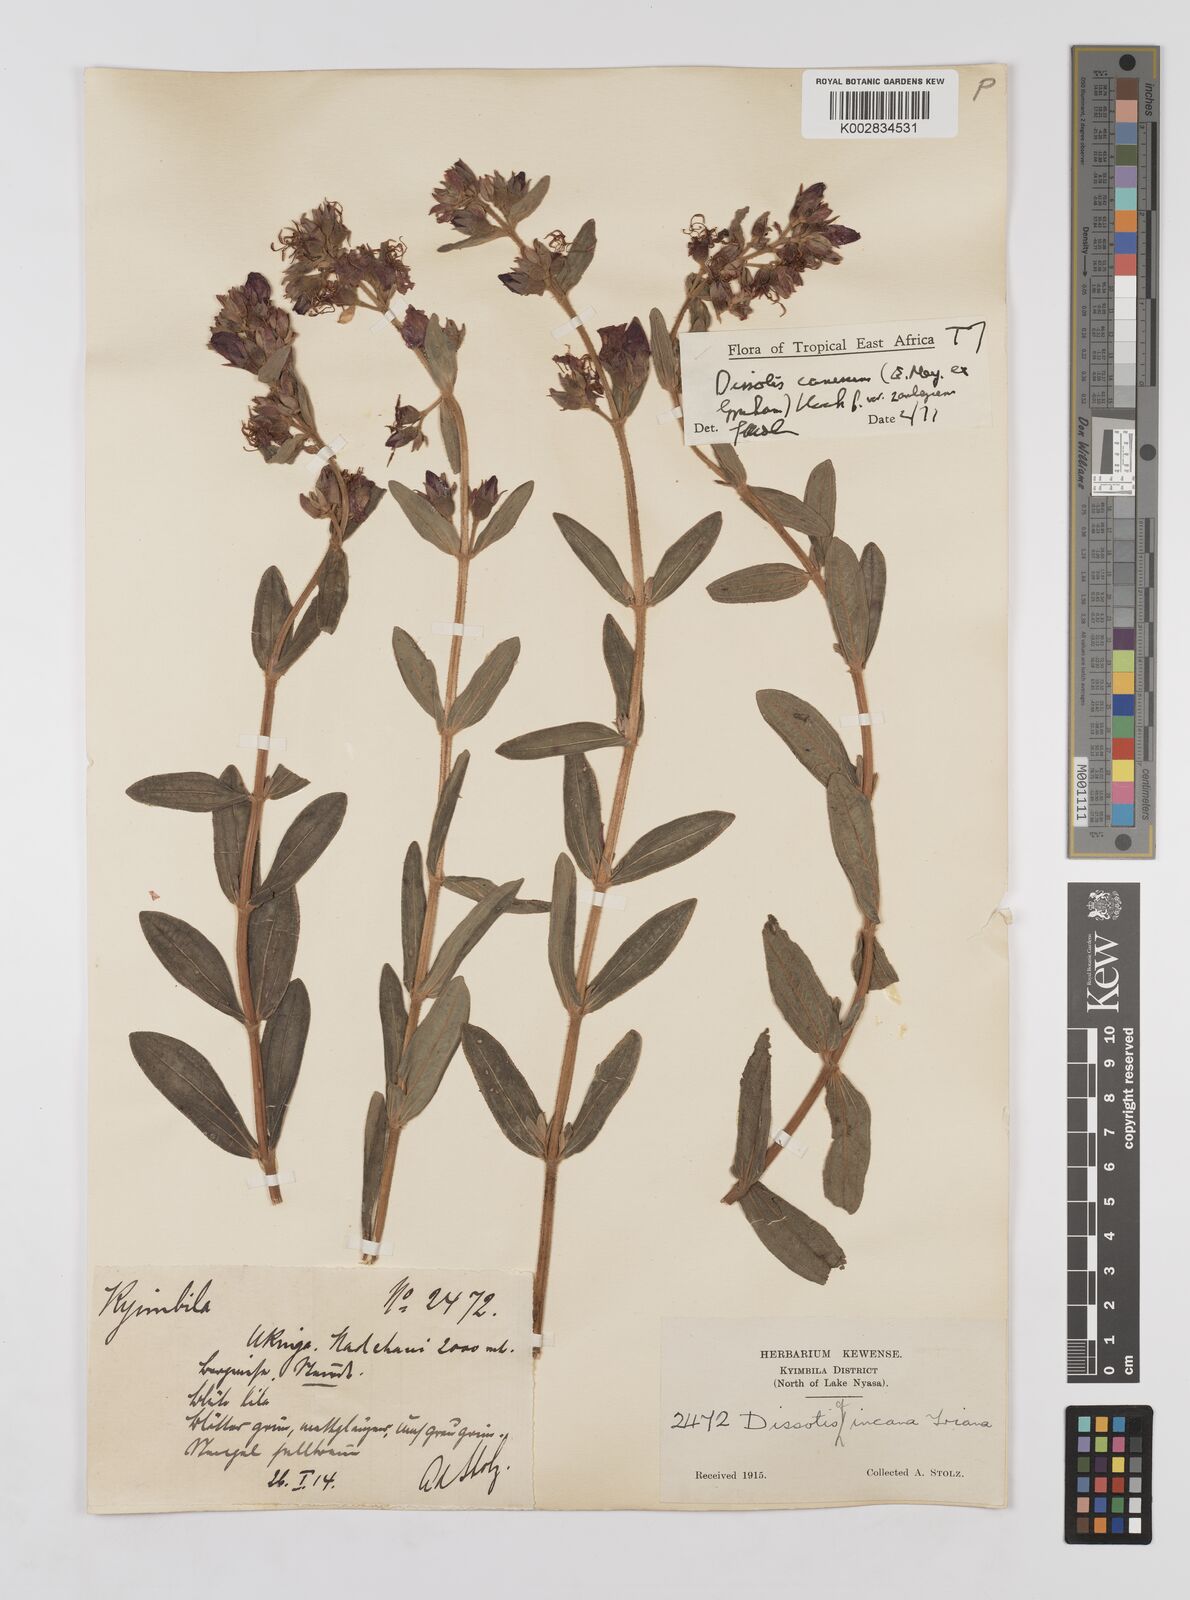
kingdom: Plantae
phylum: Tracheophyta
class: Magnoliopsida
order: Myrtales
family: Melastomataceae
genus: Argyrella
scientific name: Argyrella canescens
